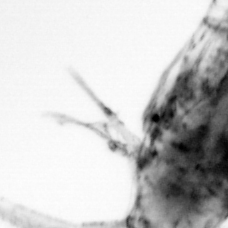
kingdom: Animalia
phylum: Arthropoda
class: Copepoda
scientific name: Copepoda
